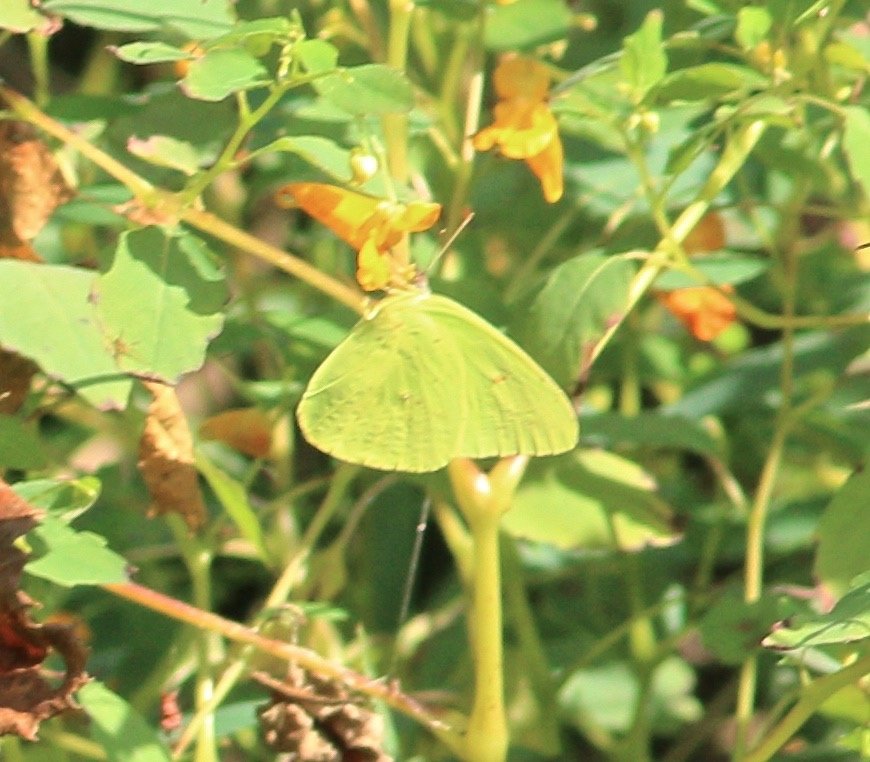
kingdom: Animalia
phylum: Arthropoda
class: Insecta
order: Lepidoptera
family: Pieridae
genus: Phoebis
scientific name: Phoebis sennae
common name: Cloudless Sulphur
